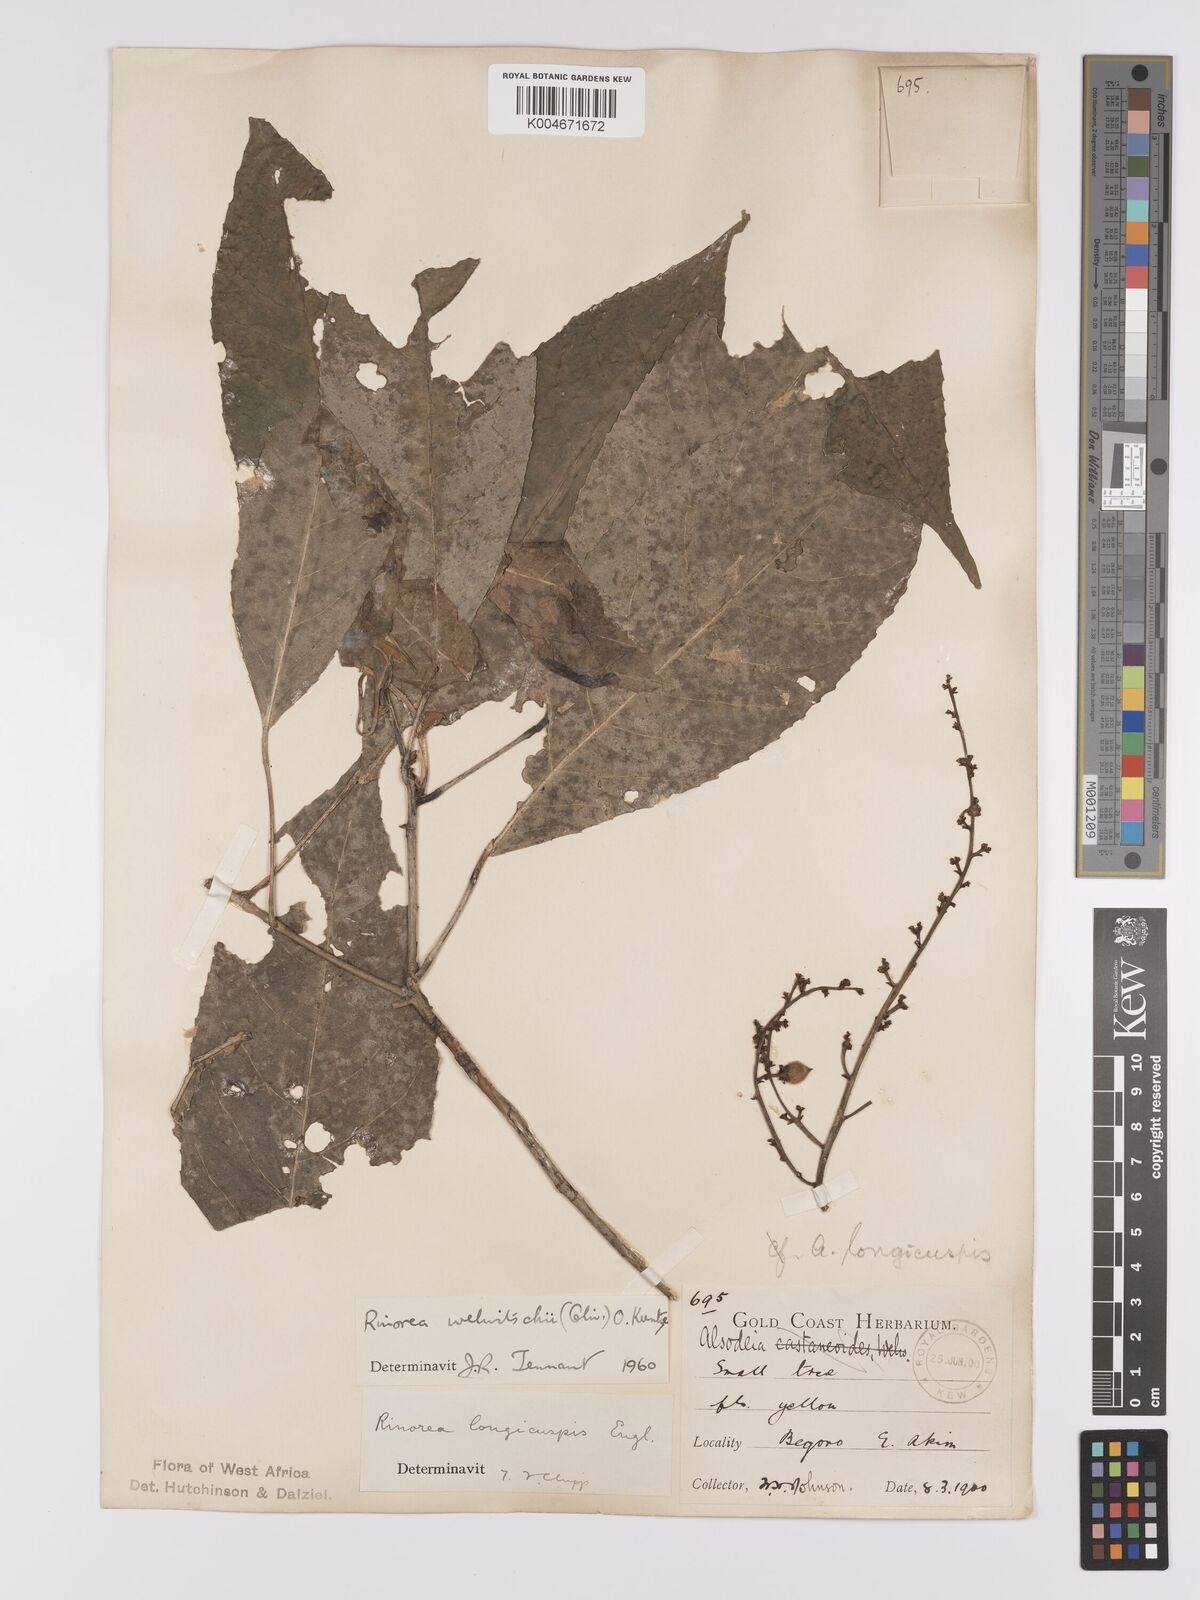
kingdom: Plantae
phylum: Tracheophyta
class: Magnoliopsida
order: Malpighiales
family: Violaceae
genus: Rinorea
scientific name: Rinorea welwitschii
